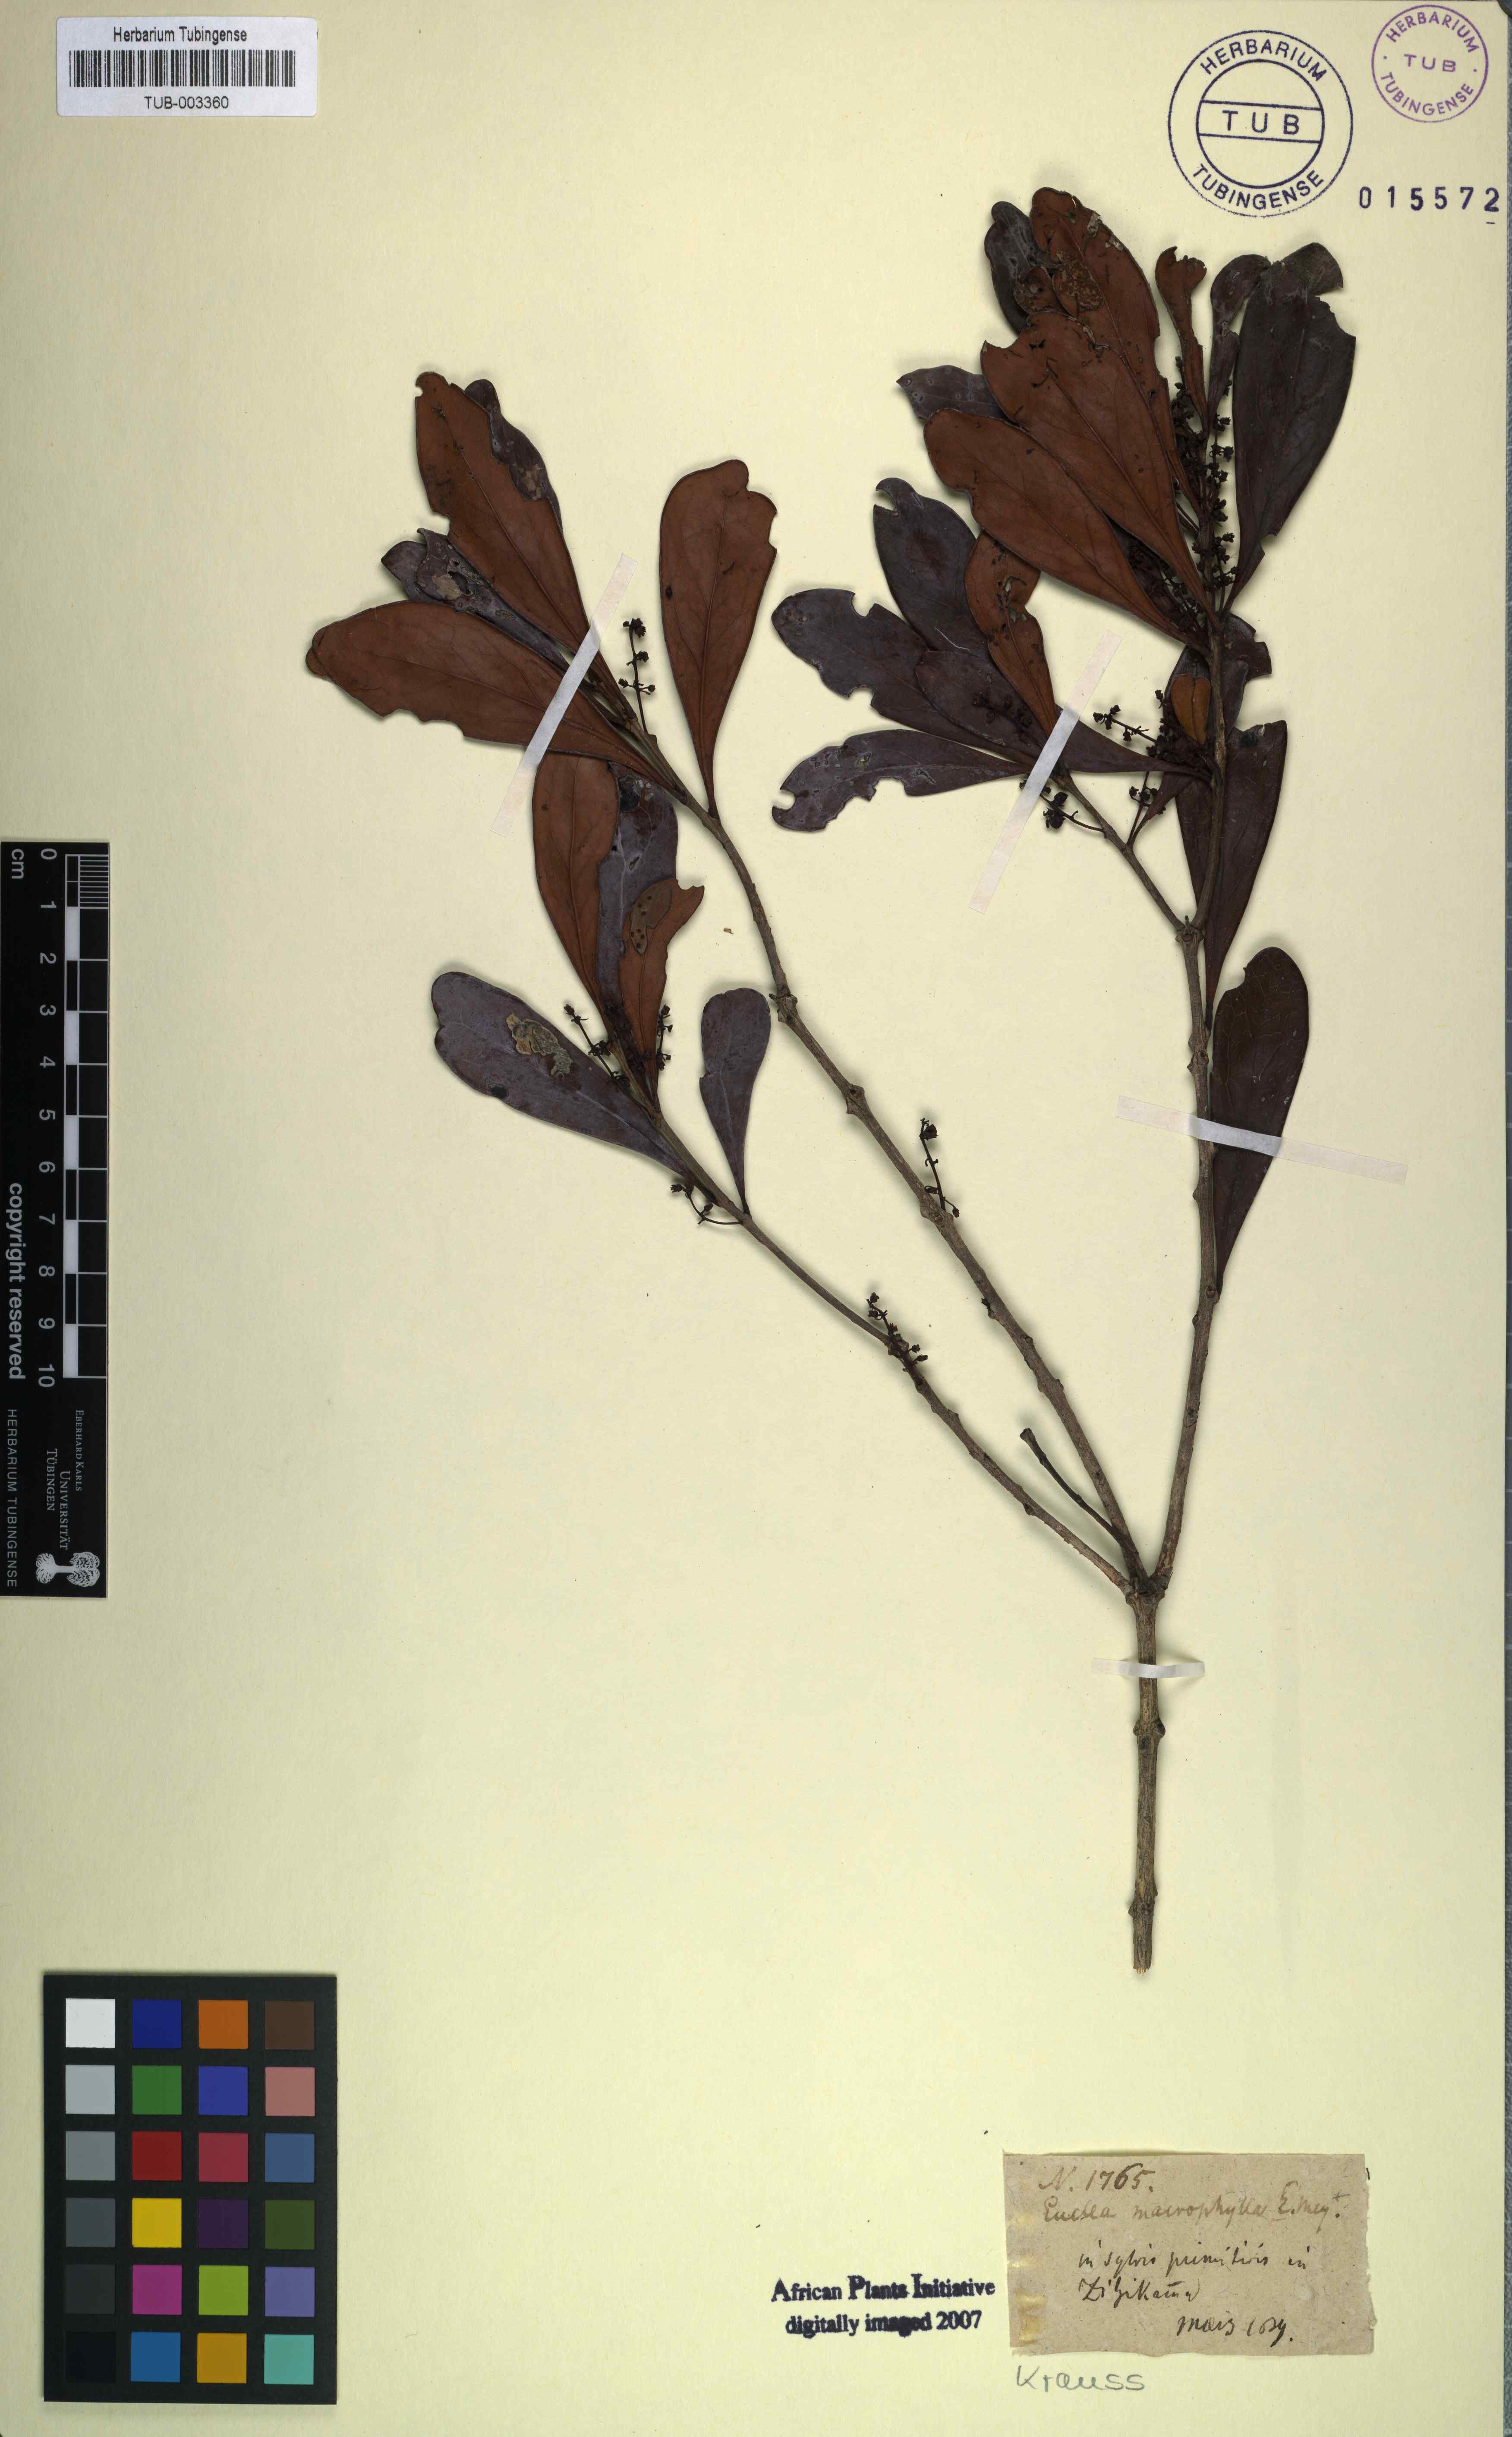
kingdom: Plantae
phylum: Tracheophyta
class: Magnoliopsida
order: Ericales
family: Ebenaceae
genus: Euclea
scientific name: Euclea natalensis
